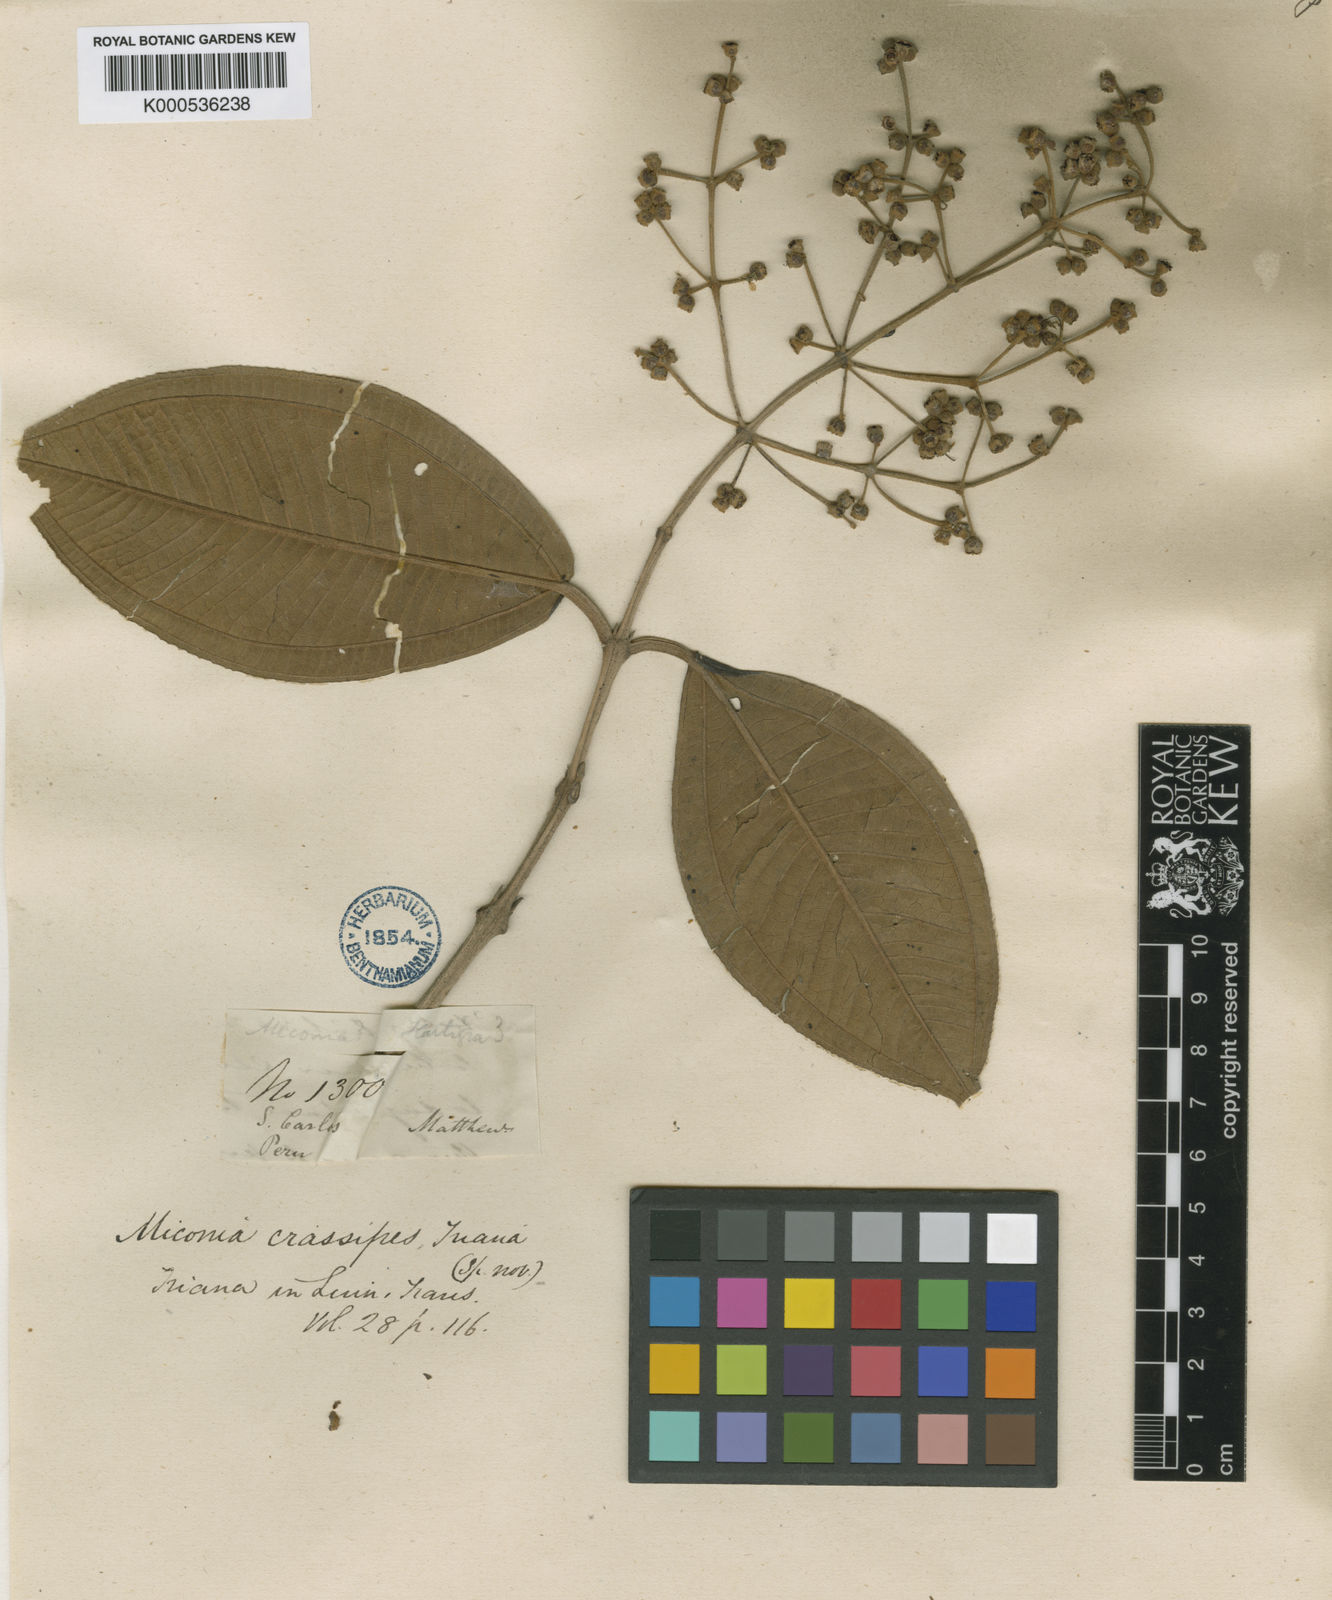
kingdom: Plantae
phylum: Tracheophyta
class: Magnoliopsida
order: Myrtales
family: Melastomataceae
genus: Miconia
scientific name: Miconia crassipes
